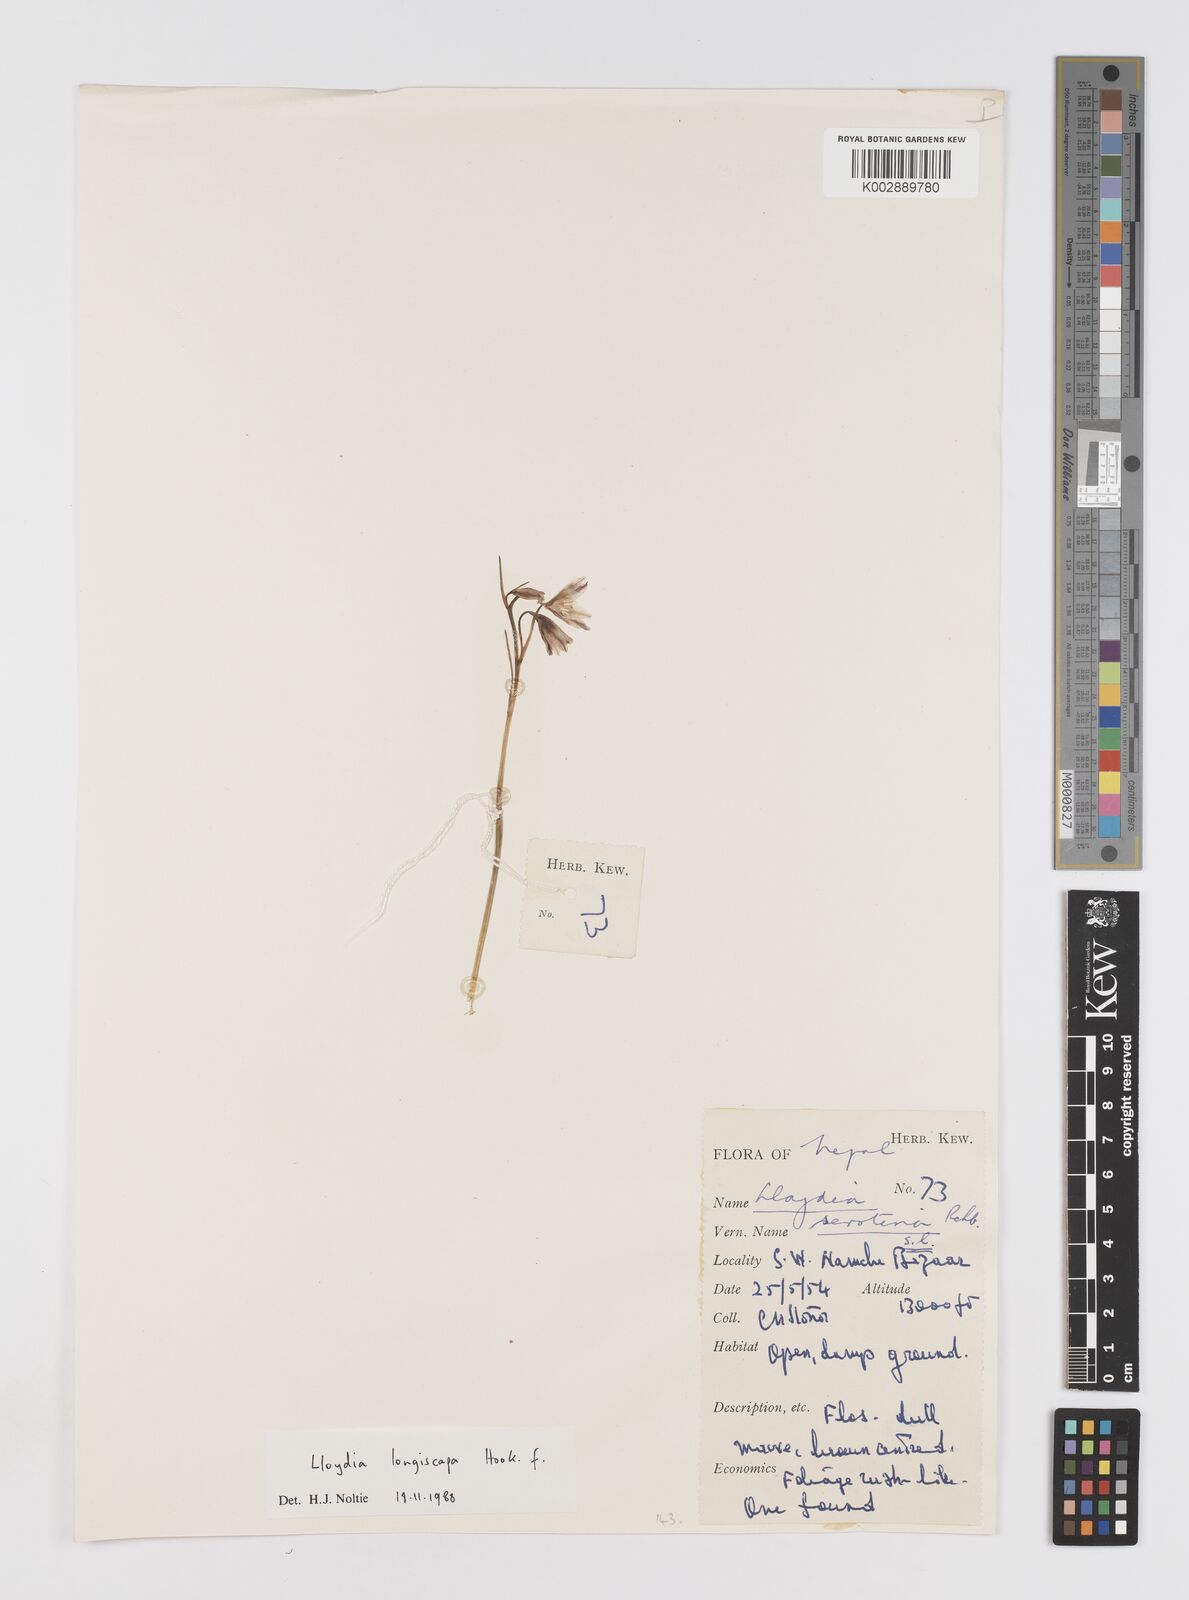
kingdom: Plantae
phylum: Tracheophyta
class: Liliopsida
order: Liliales
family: Liliaceae
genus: Gagea
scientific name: Gagea longiscapa
